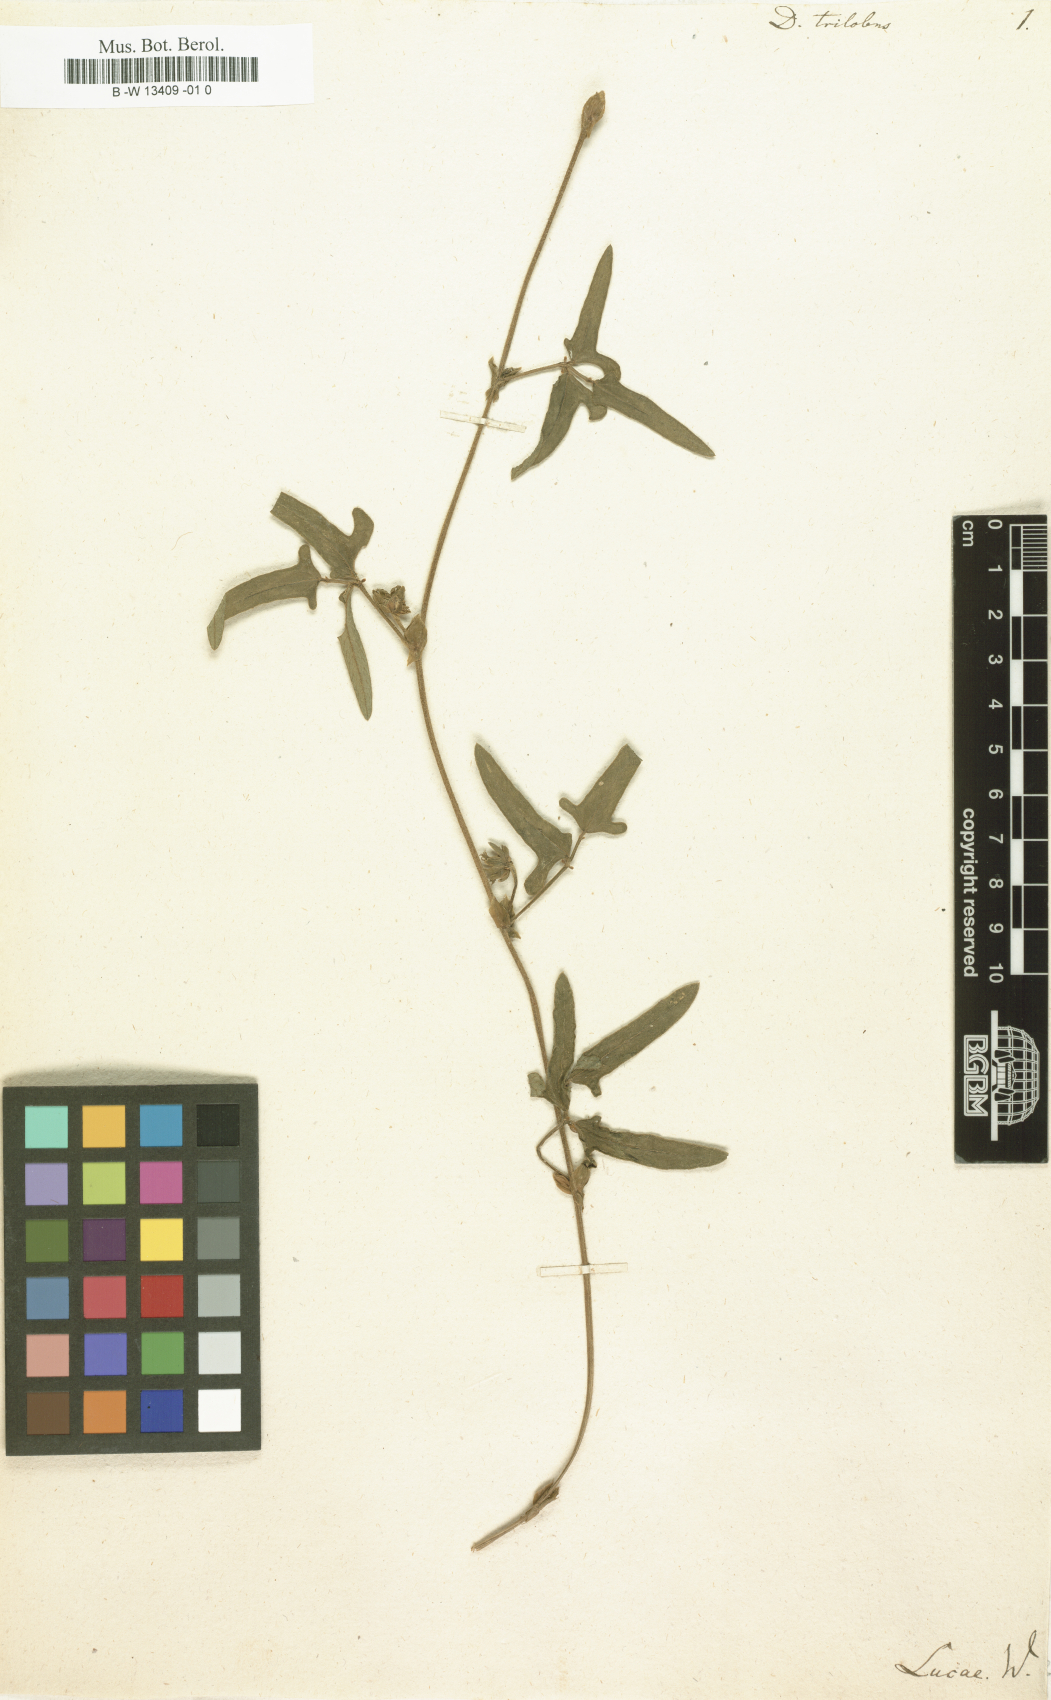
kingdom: Plantae
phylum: Tracheophyta
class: Magnoliopsida
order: Fabales
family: Fabaceae
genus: Dolichos
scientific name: Dolichos trilobus
